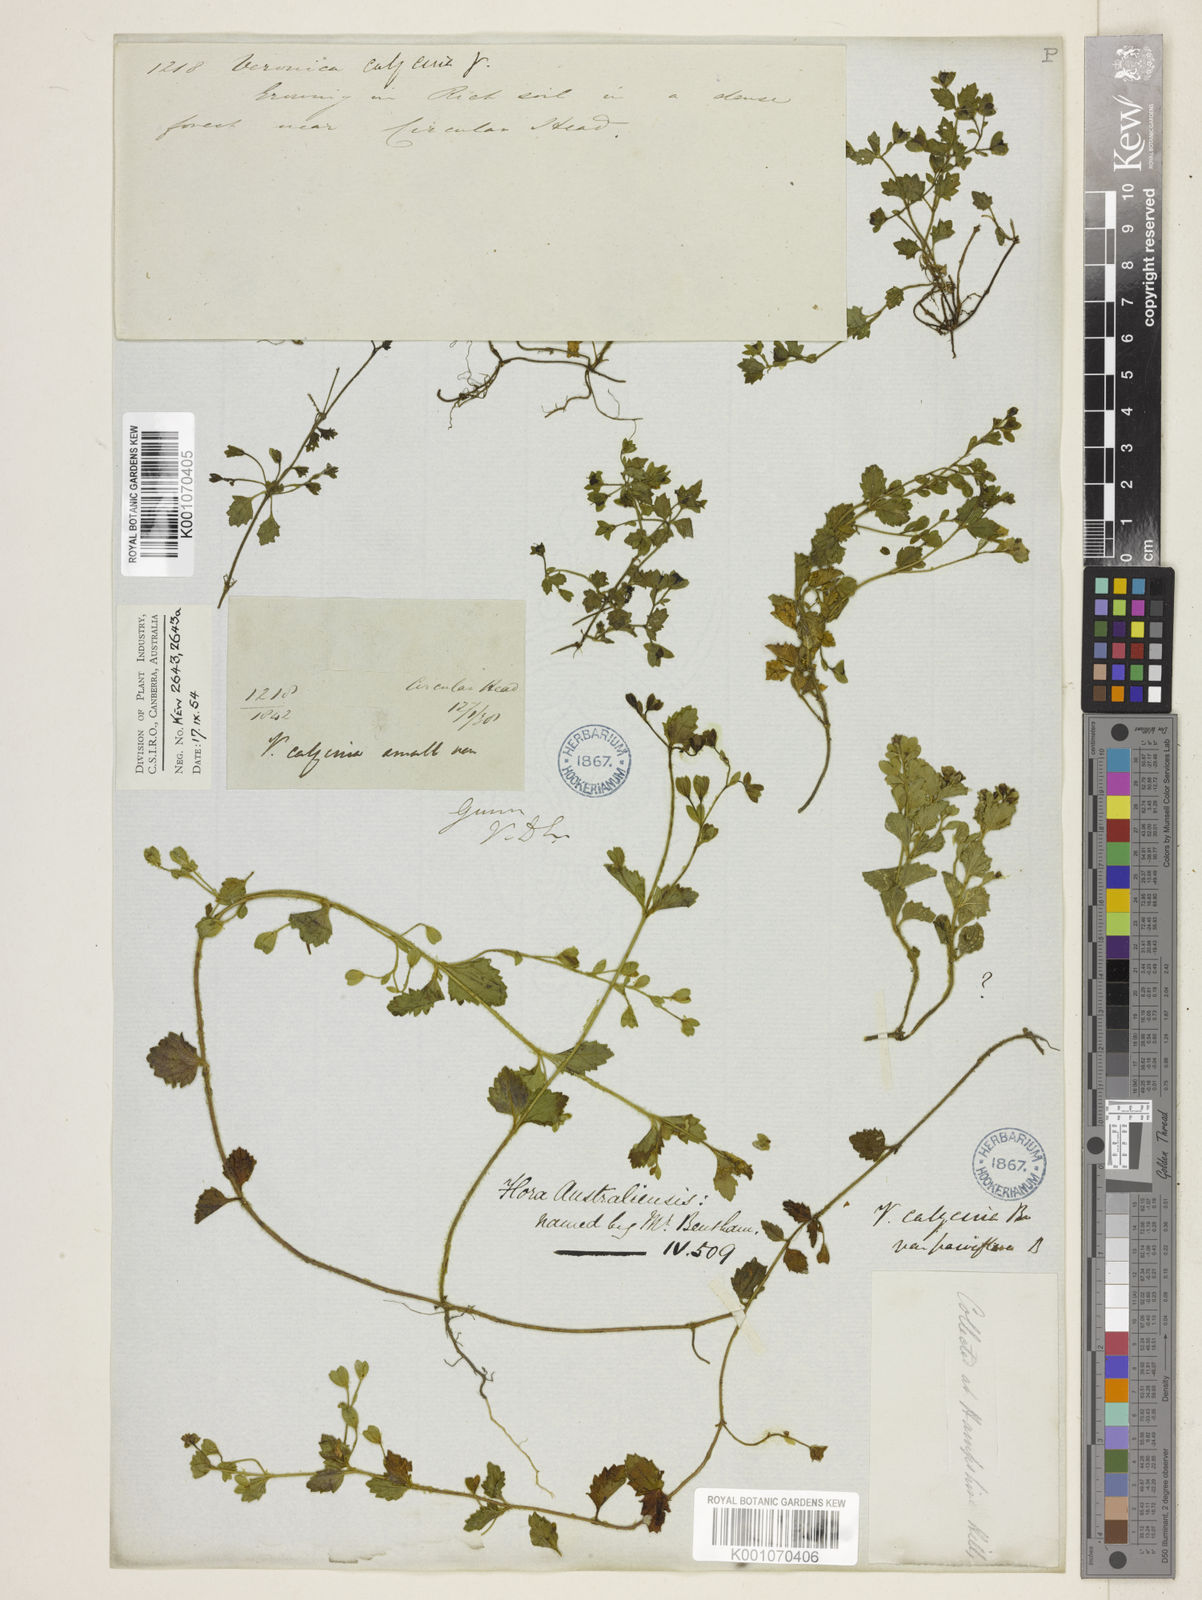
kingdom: Plantae
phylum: Tracheophyta
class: Magnoliopsida
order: Lamiales
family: Plantaginaceae
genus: Veronica
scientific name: Veronica calycina
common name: Cup speedwell
